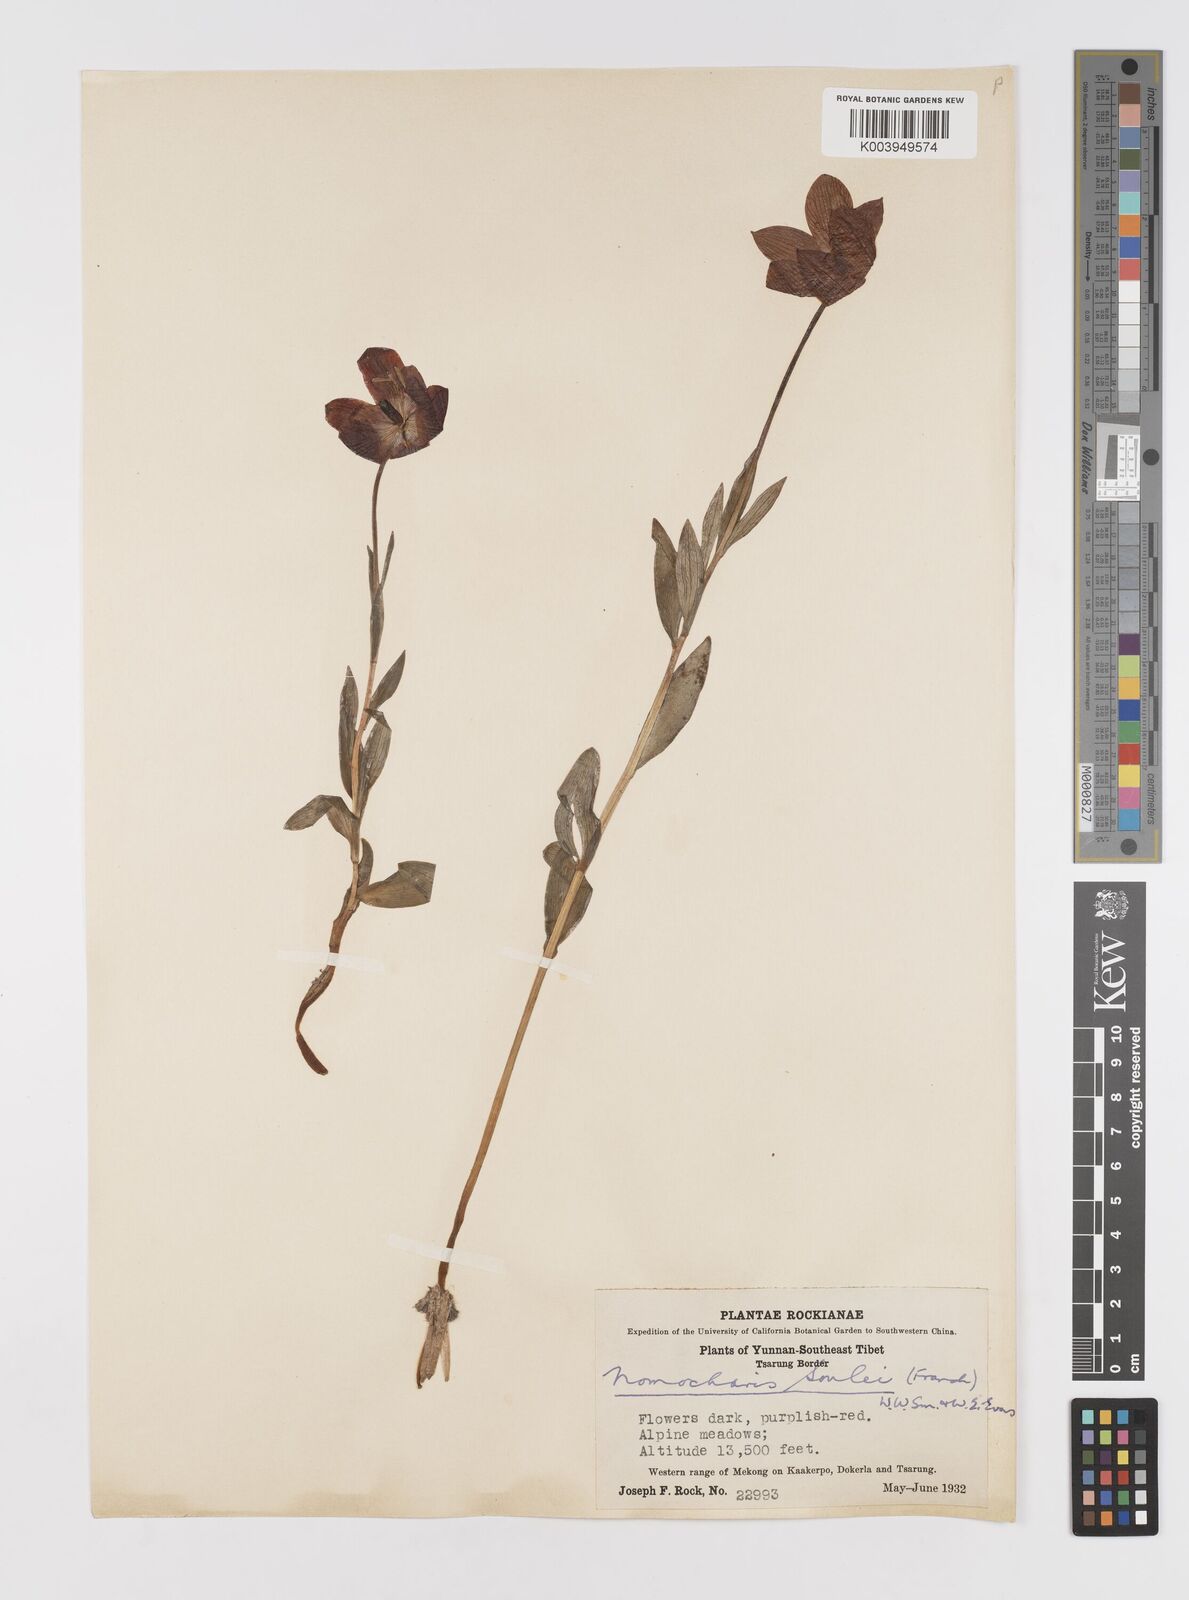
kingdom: Plantae
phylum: Tracheophyta
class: Liliopsida
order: Liliales
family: Liliaceae
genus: Lilium
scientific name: Lilium souliei
